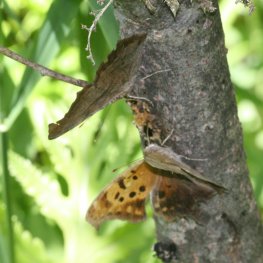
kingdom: Animalia
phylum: Arthropoda
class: Insecta
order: Lepidoptera
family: Nymphalidae
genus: Polygonia
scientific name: Polygonia interrogationis
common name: Question Mark
